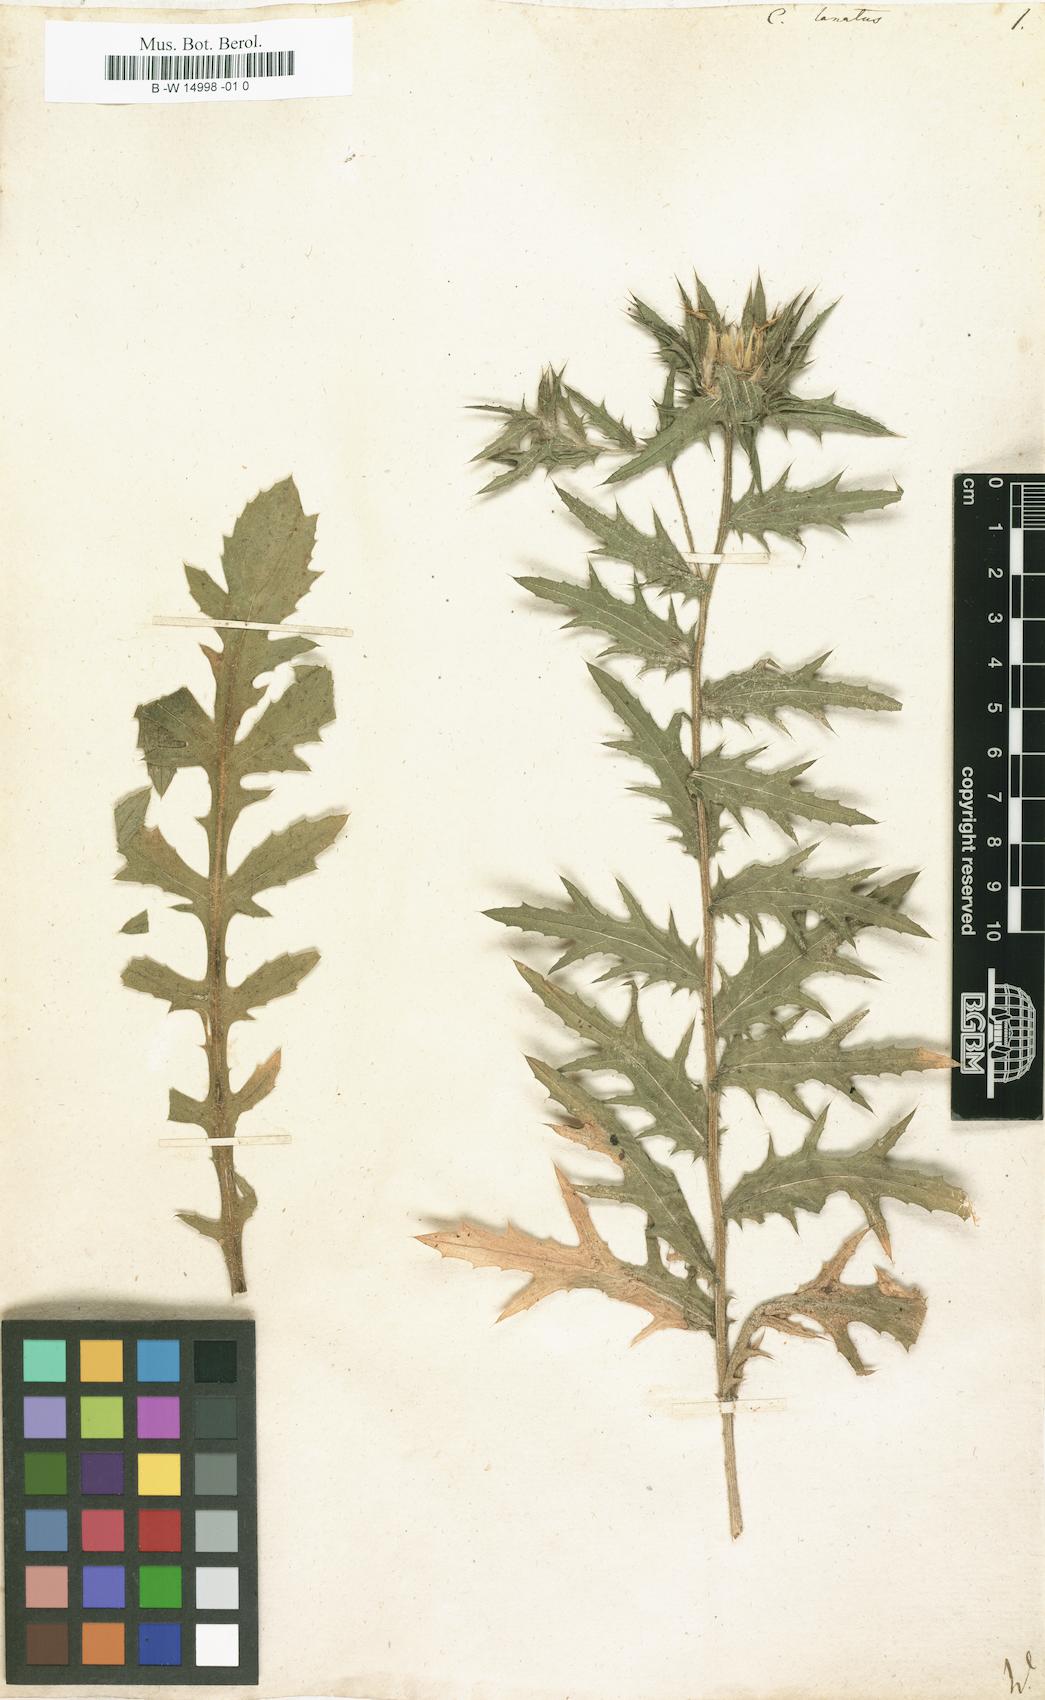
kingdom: Plantae
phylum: Tracheophyta
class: Magnoliopsida
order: Asterales
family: Asteraceae
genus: Carthamus
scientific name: Carthamus lanatus
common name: Downy safflower
